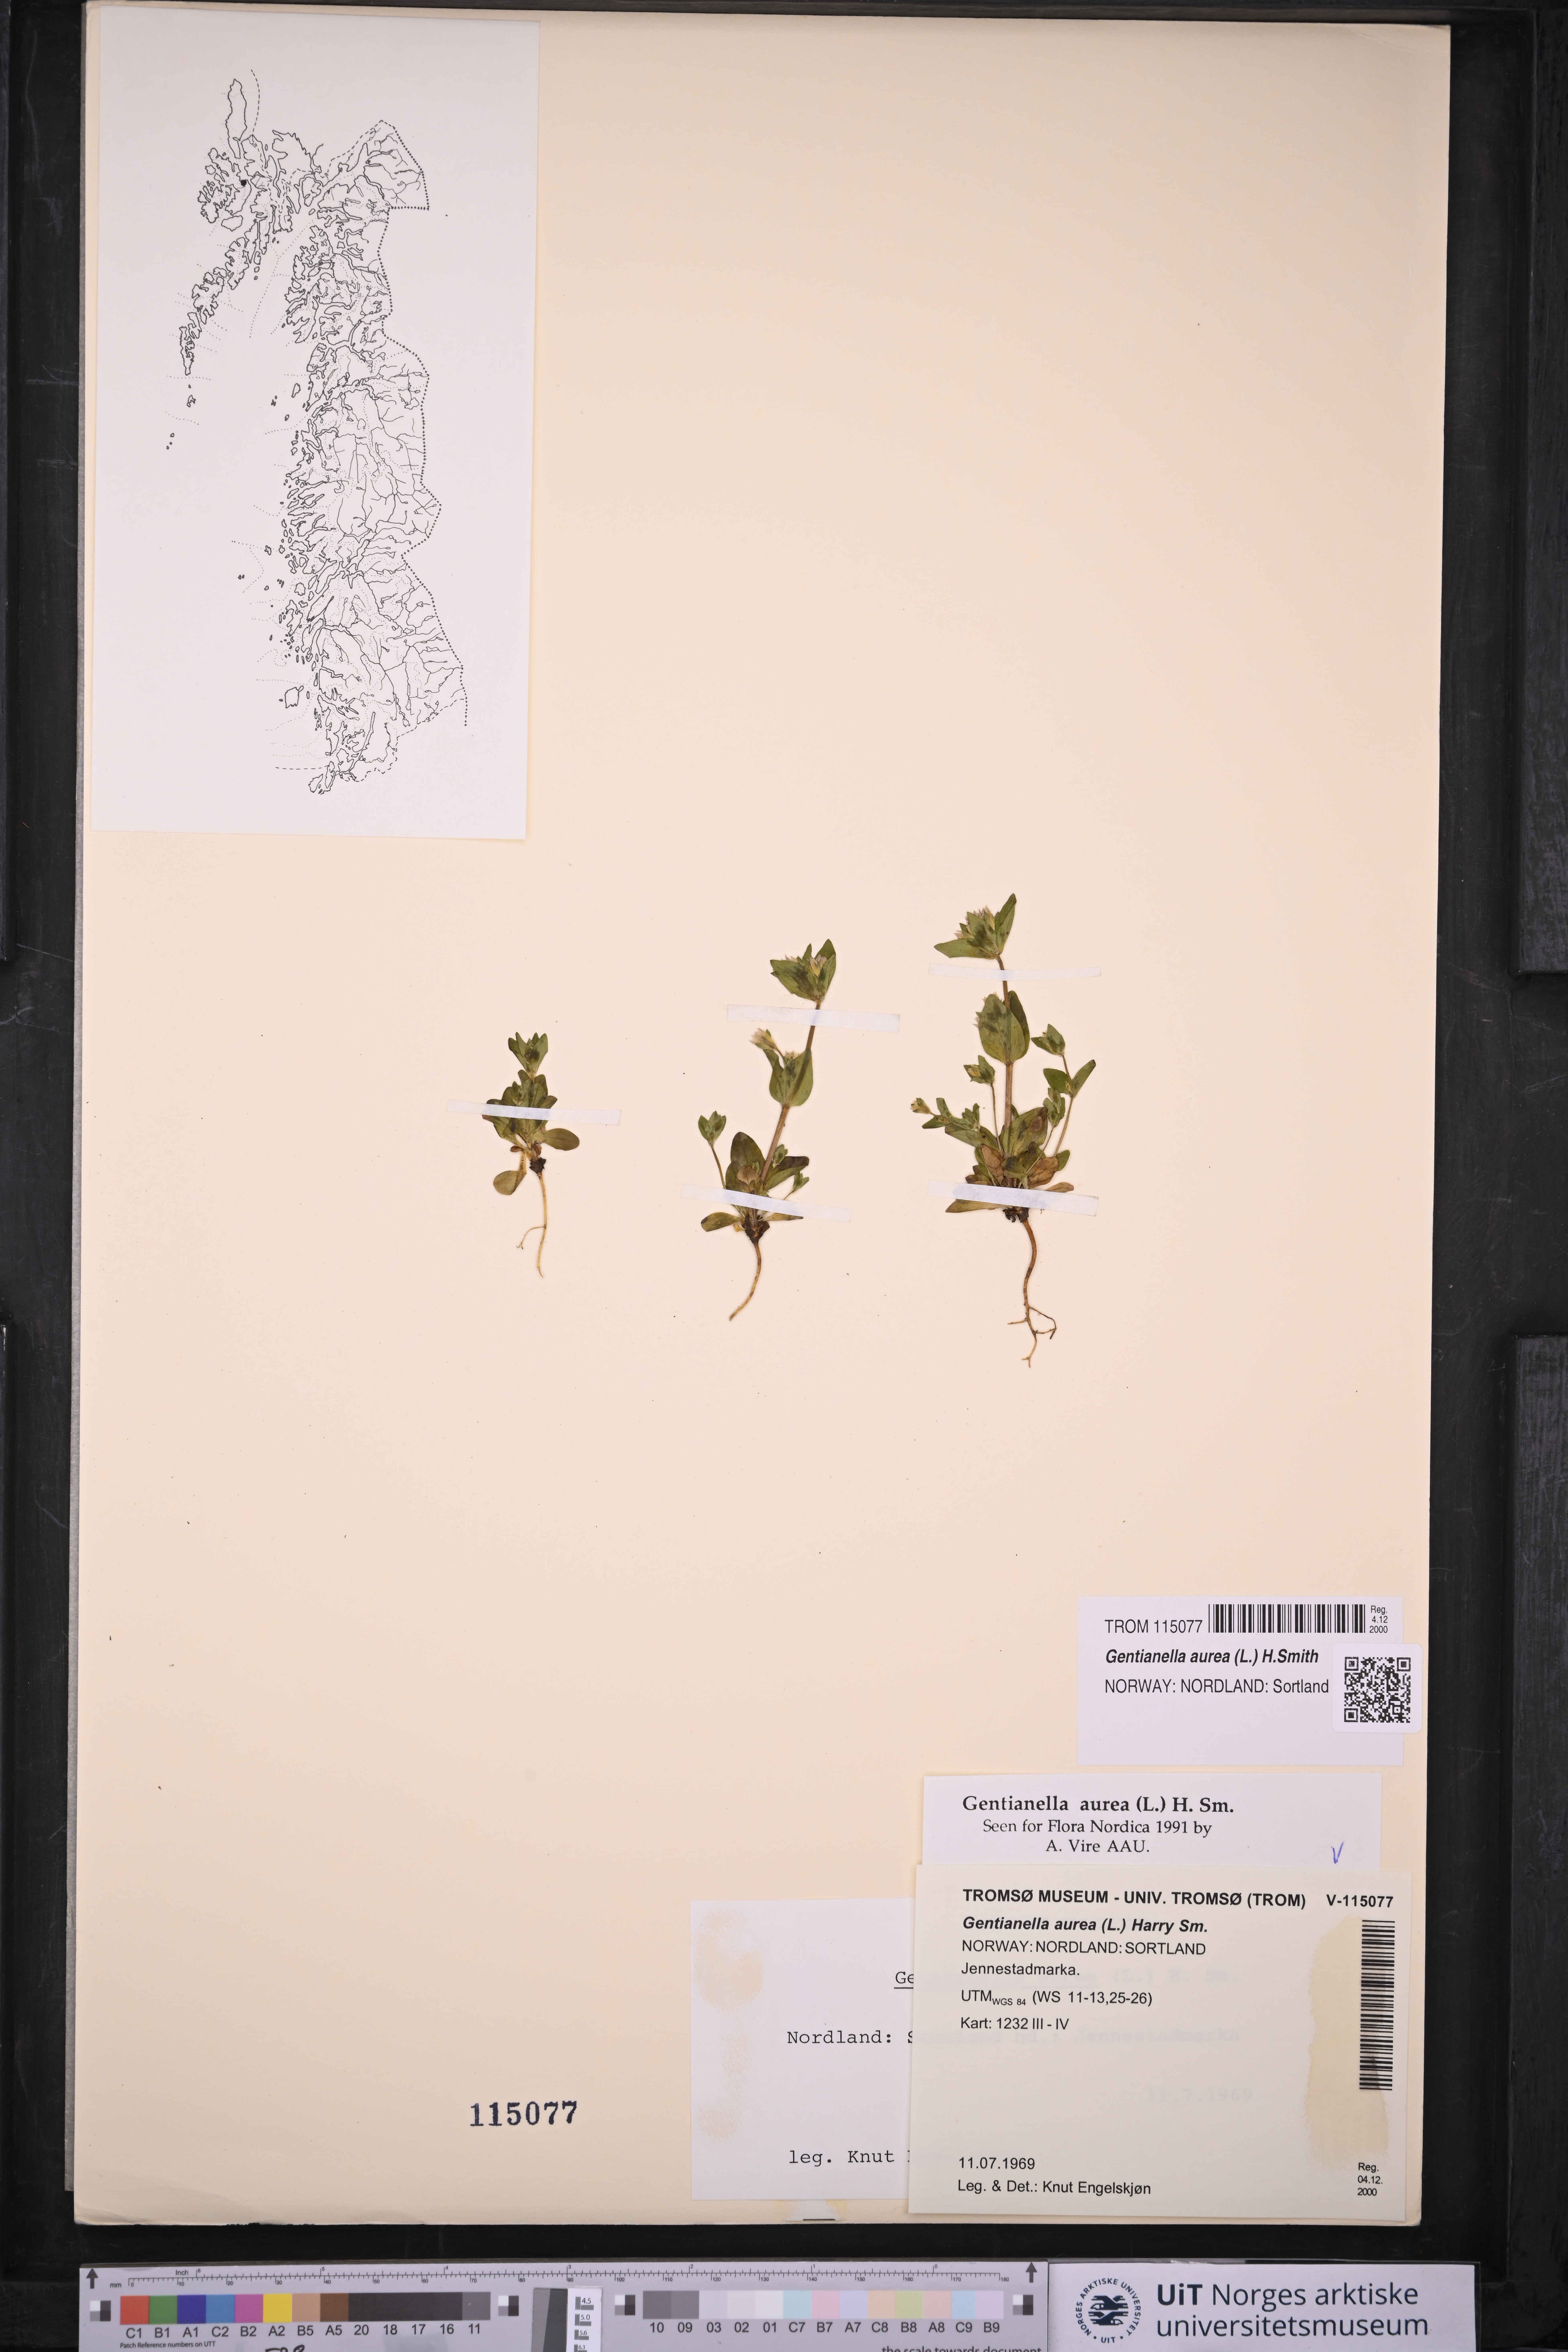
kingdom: Plantae
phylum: Tracheophyta
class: Magnoliopsida
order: Gentianales
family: Gentianaceae
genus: Gentianella
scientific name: Gentianella aurea
